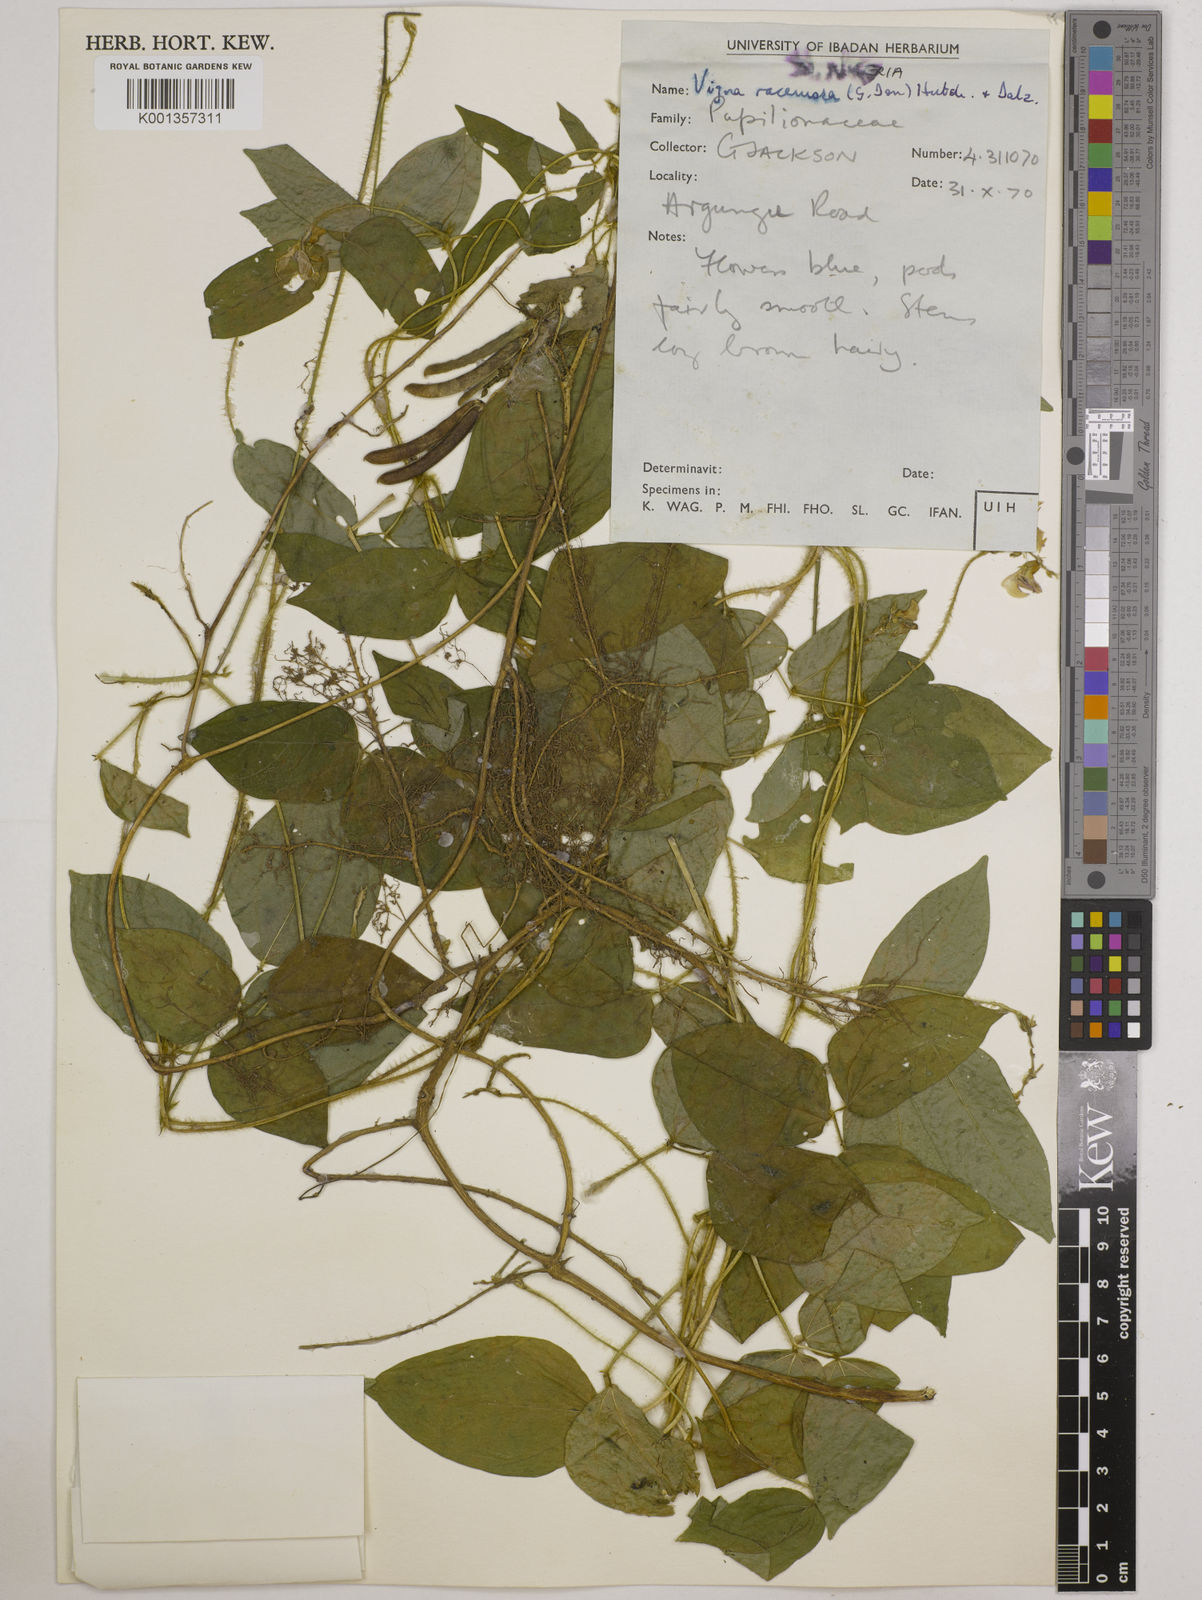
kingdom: Plantae
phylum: Tracheophyta
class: Magnoliopsida
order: Fabales
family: Fabaceae
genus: Vigna
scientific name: Vigna racemosa
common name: Beans not eaten
